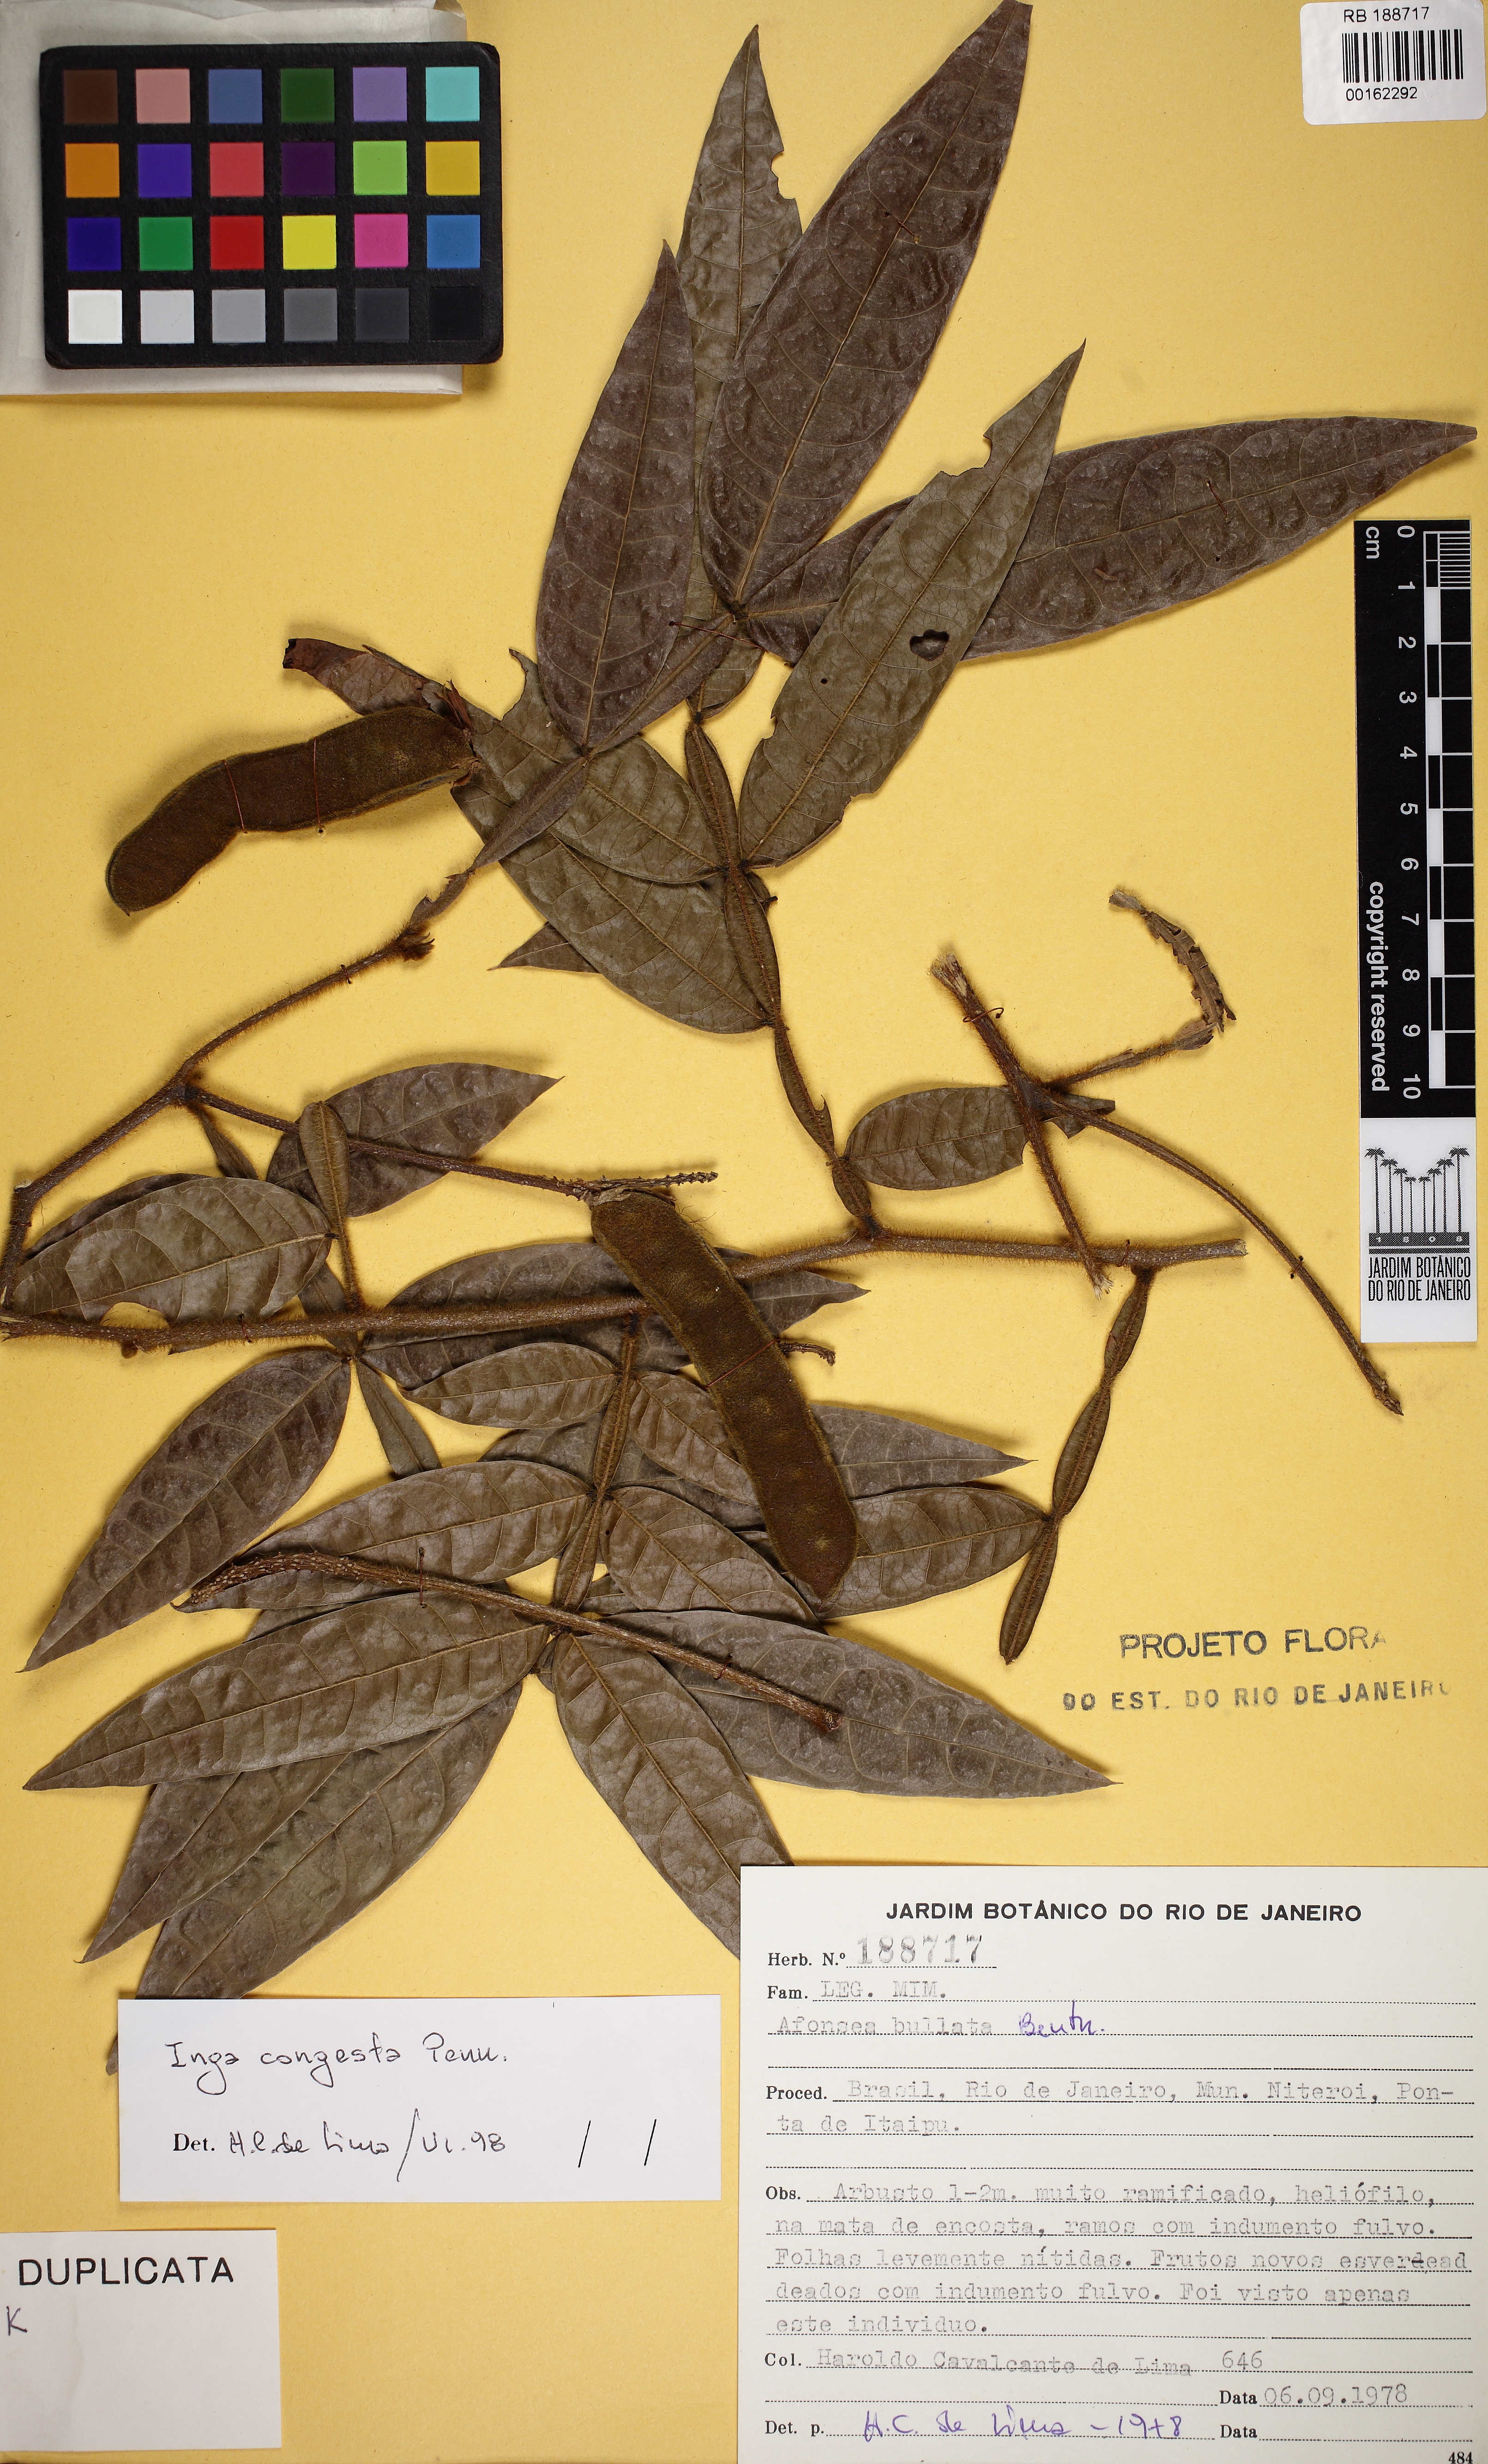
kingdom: Plantae
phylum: Tracheophyta
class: Magnoliopsida
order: Fabales
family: Fabaceae
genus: Inga
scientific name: Inga congesta
